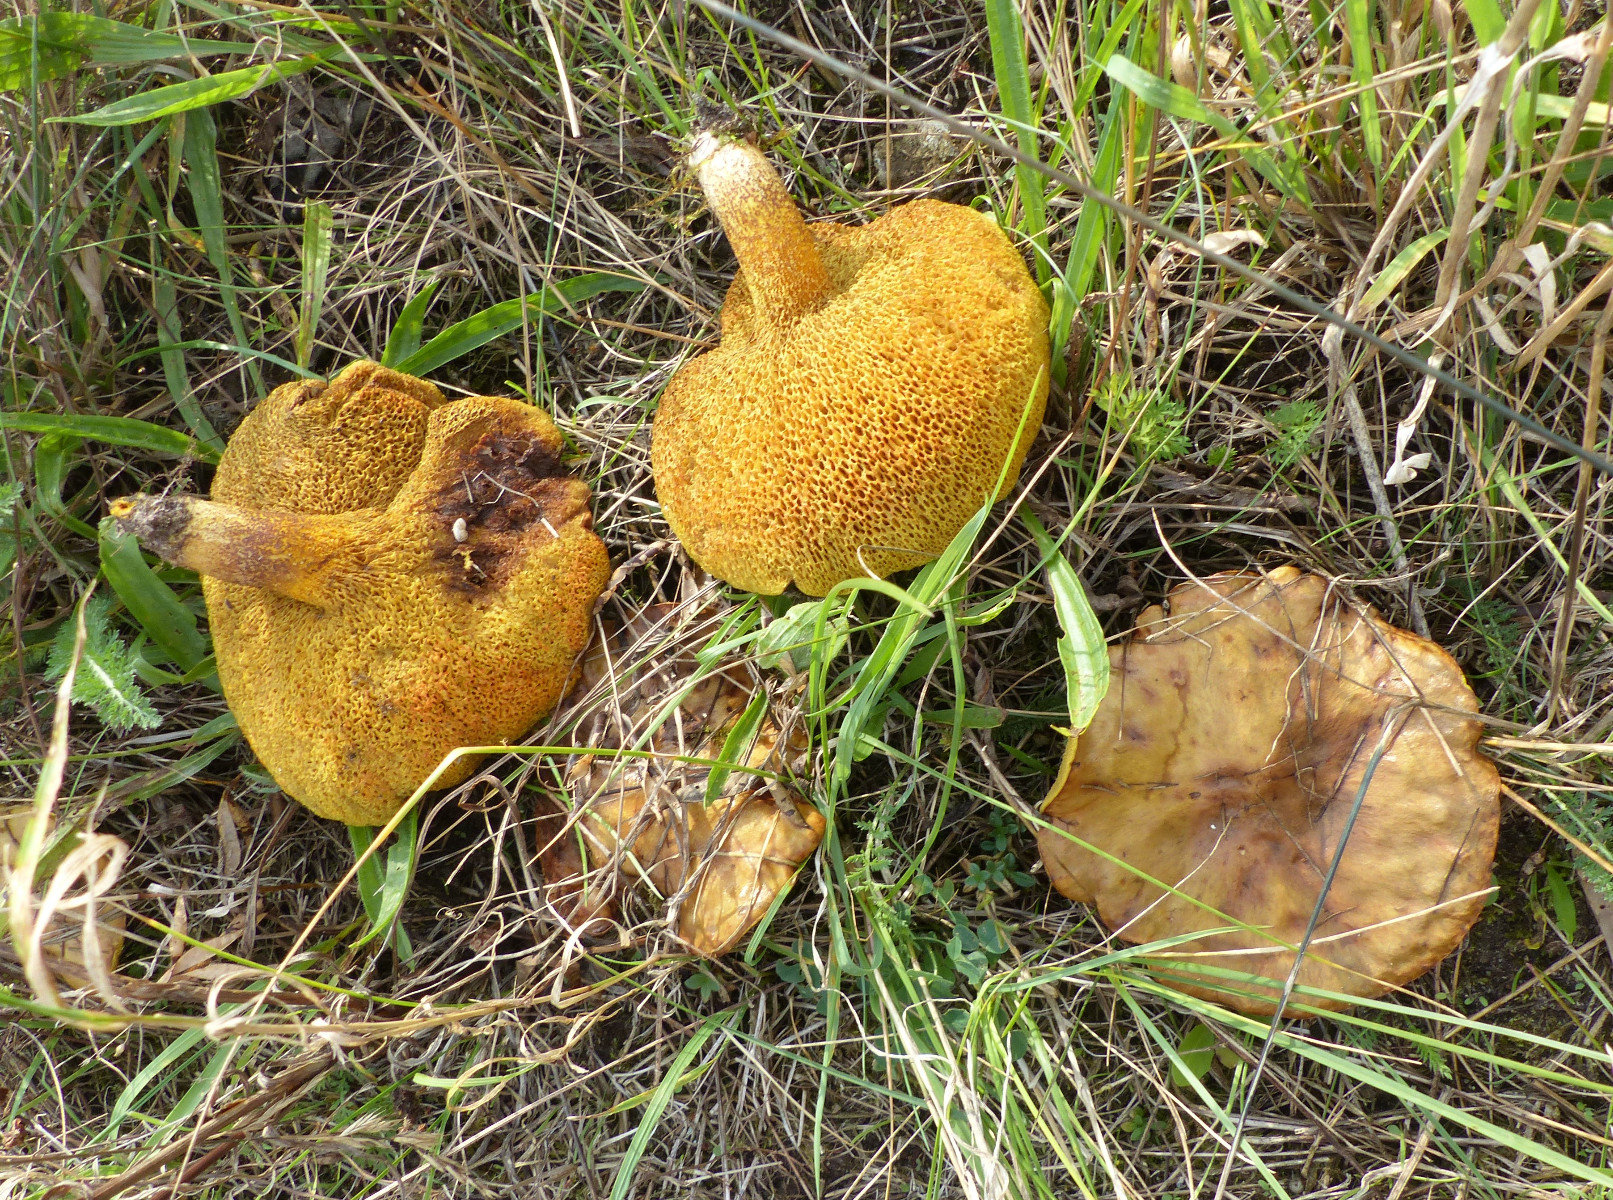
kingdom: Fungi
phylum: Basidiomycota
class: Agaricomycetes
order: Boletales
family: Suillaceae
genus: Suillus
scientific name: Suillus collinitus
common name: rosafodet slimrørhat
